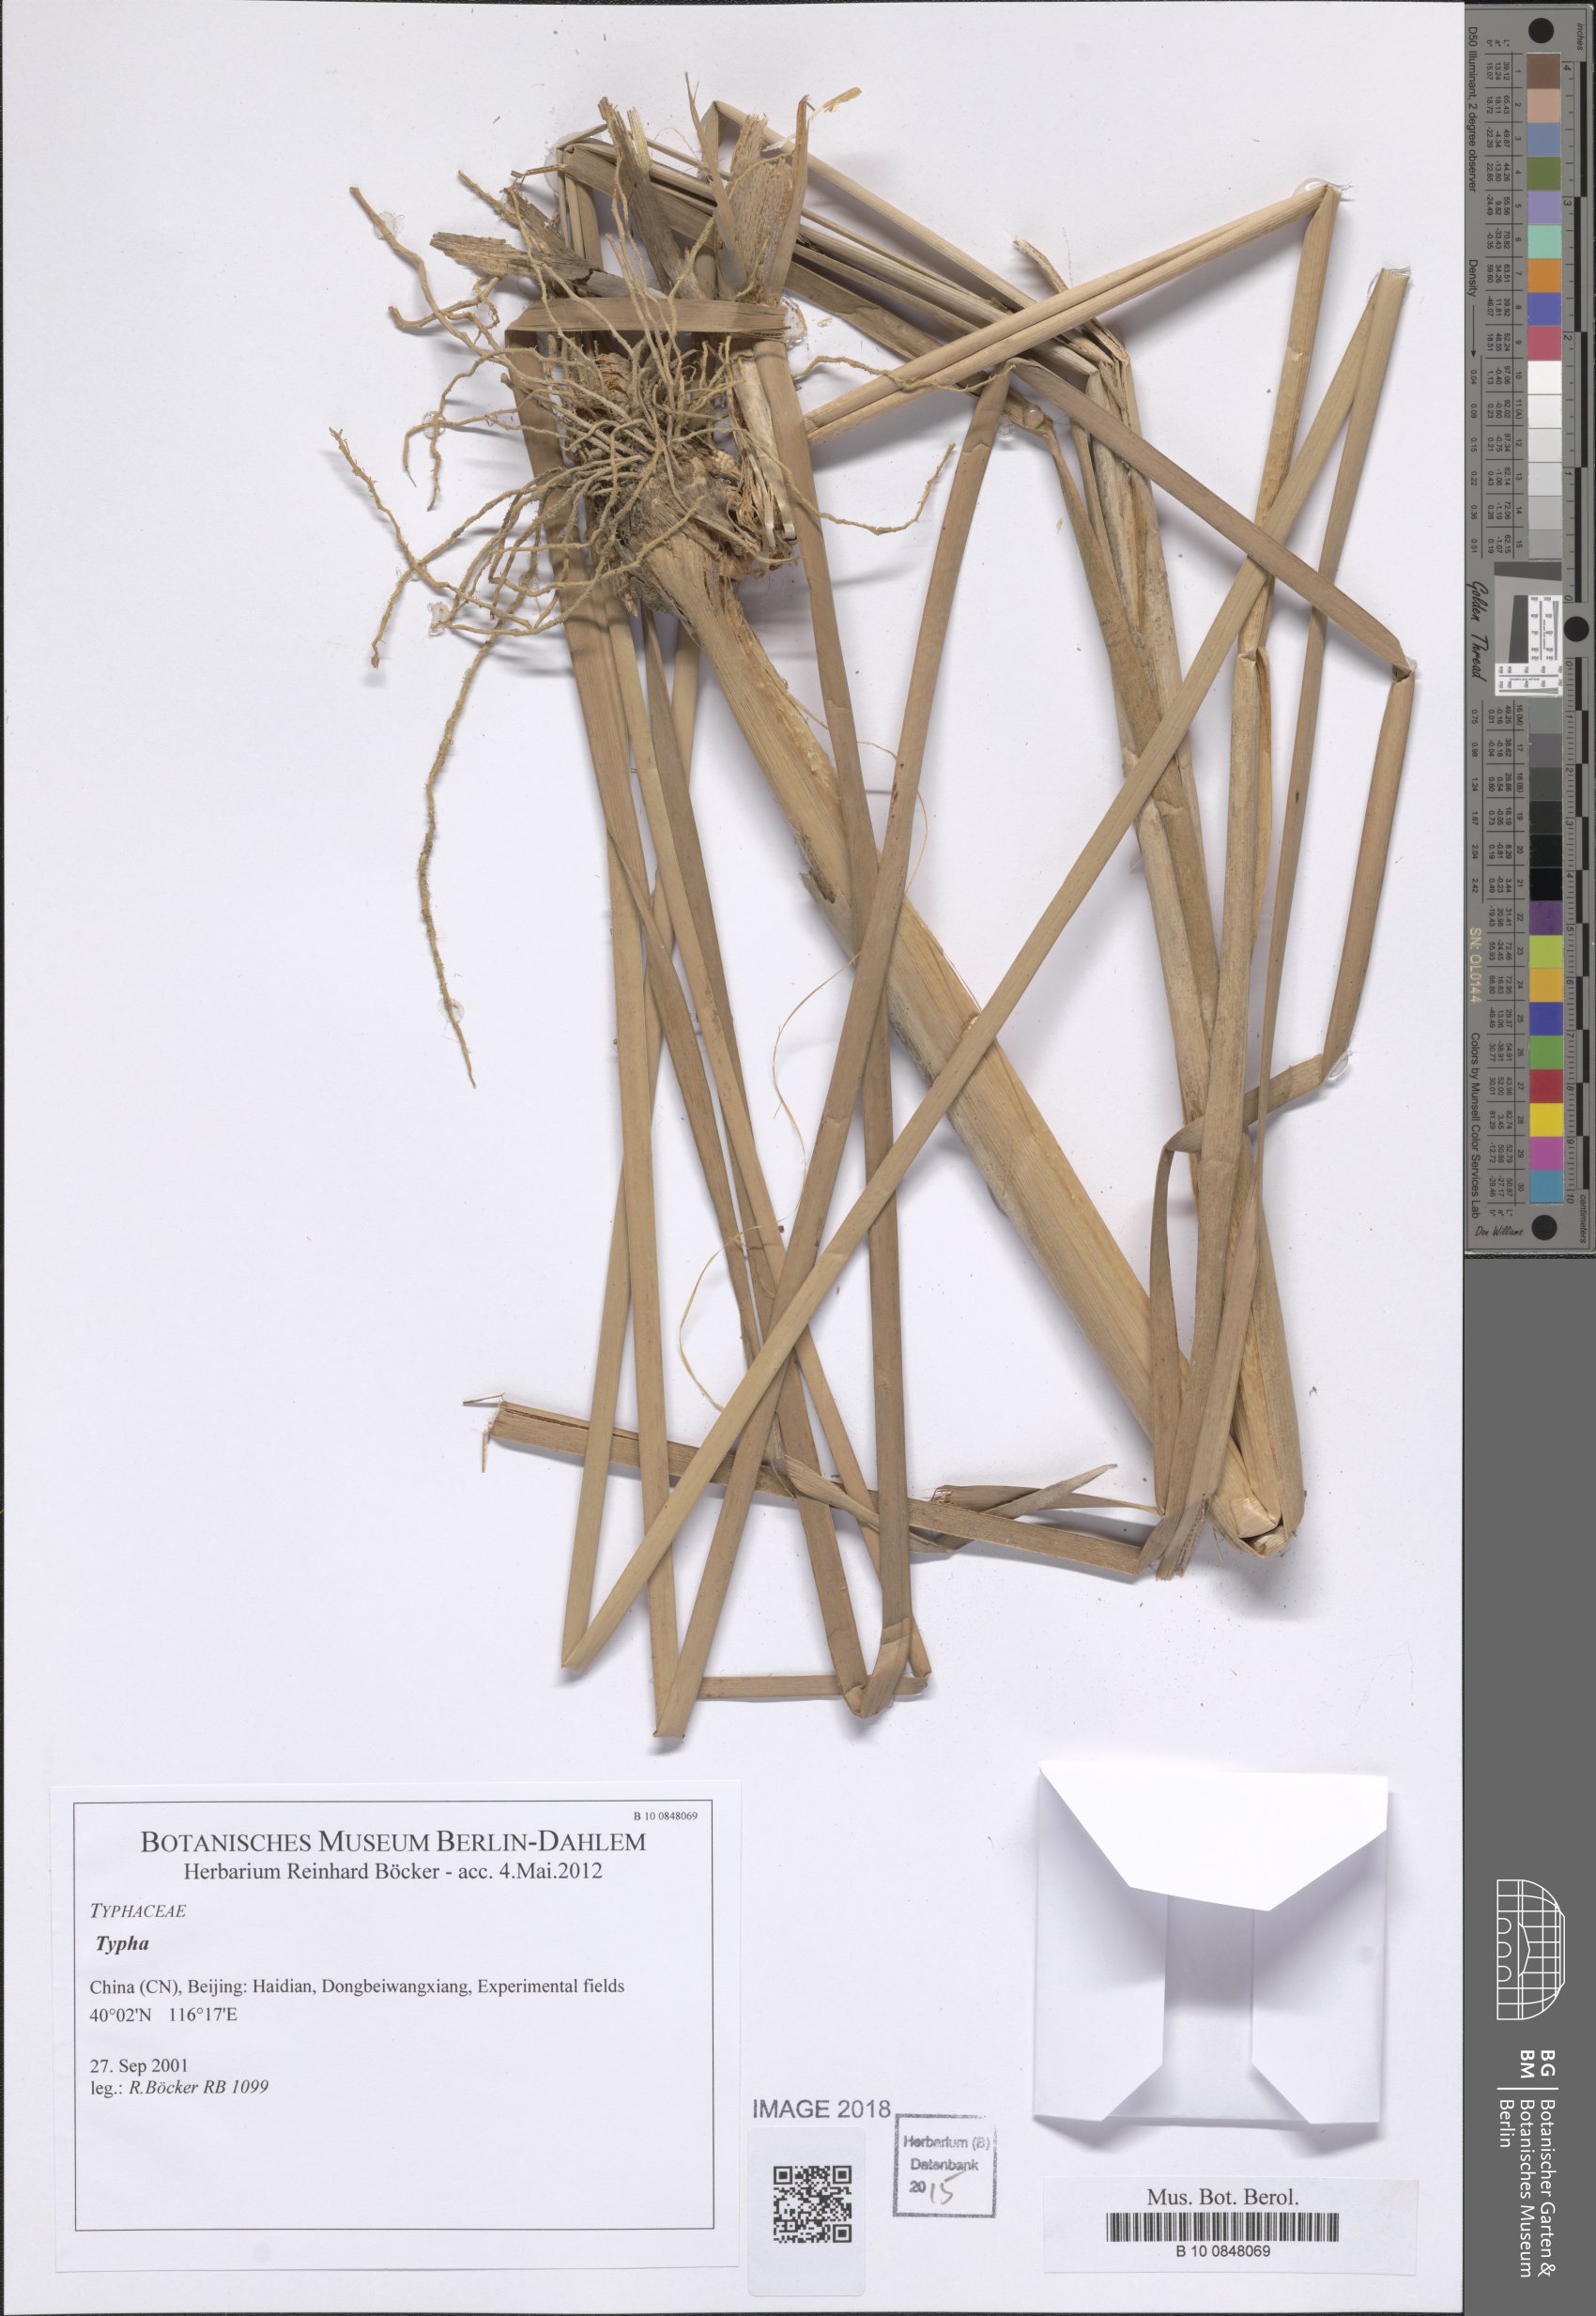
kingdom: Plantae
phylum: Tracheophyta
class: Liliopsida
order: Poales
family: Typhaceae
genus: Typha
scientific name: Typha
